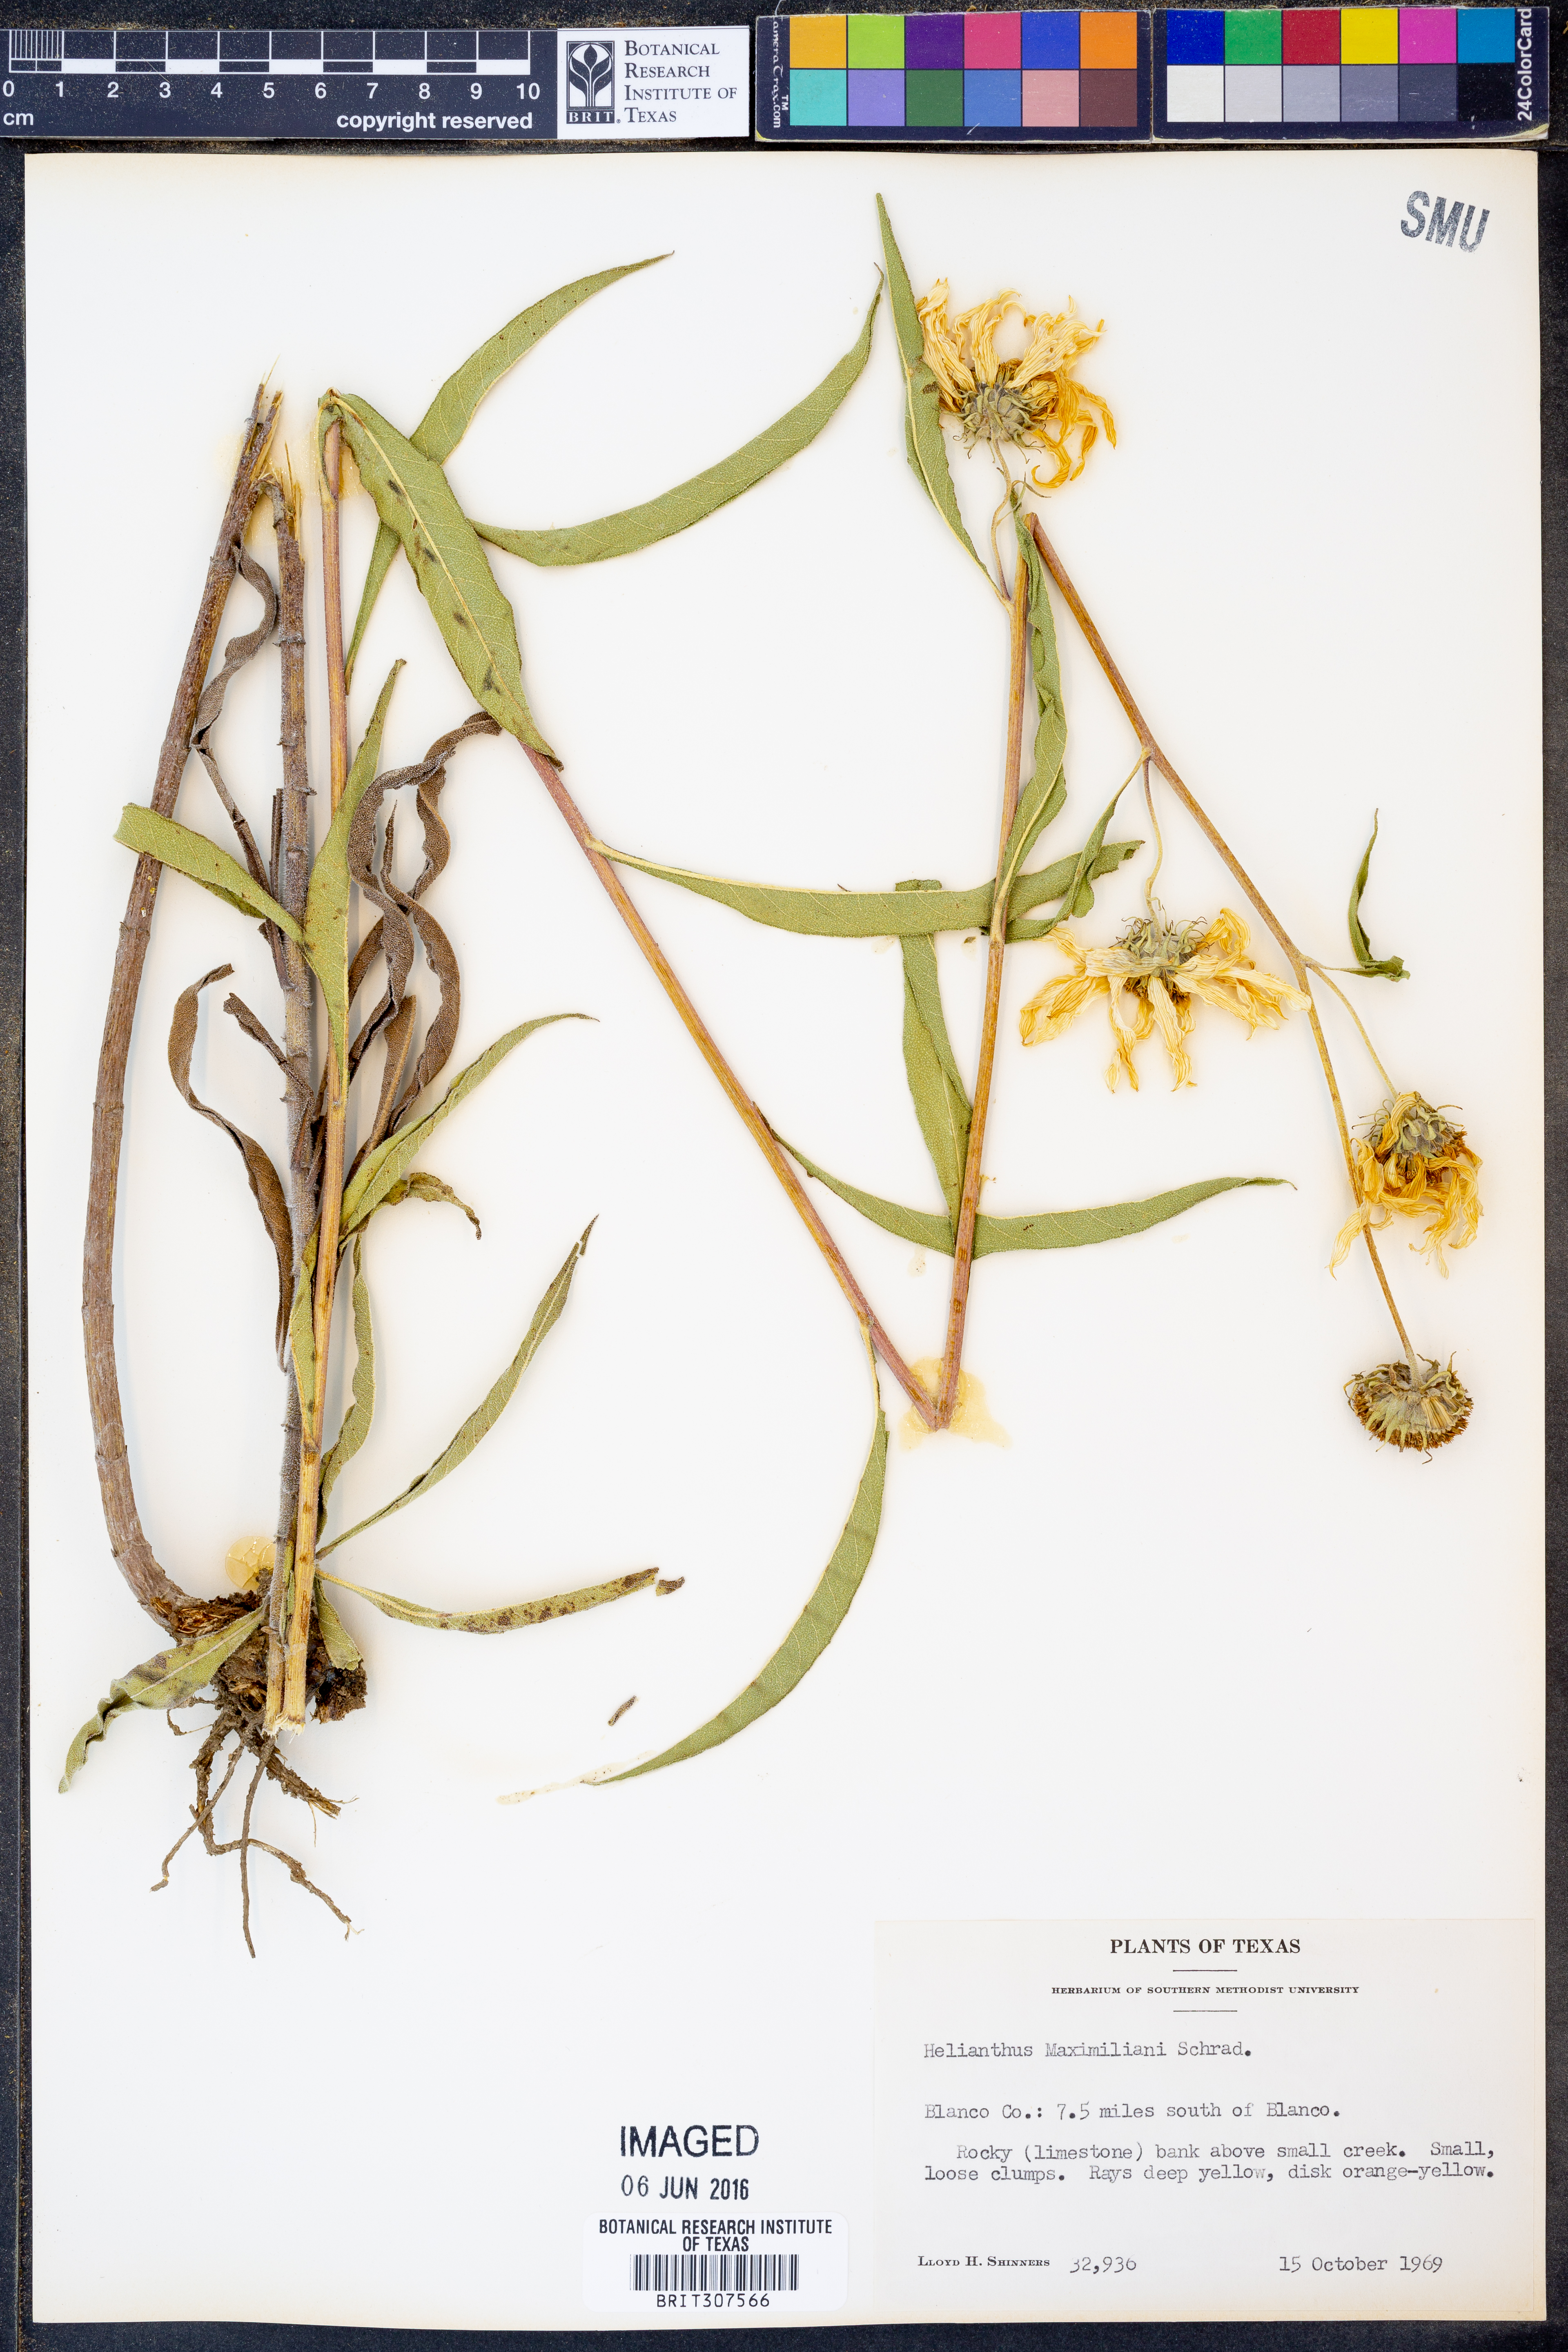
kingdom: Plantae
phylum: Tracheophyta
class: Magnoliopsida
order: Asterales
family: Asteraceae
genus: Helianthus
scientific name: Helianthus maximiliani
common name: Maximilian's sunflower
